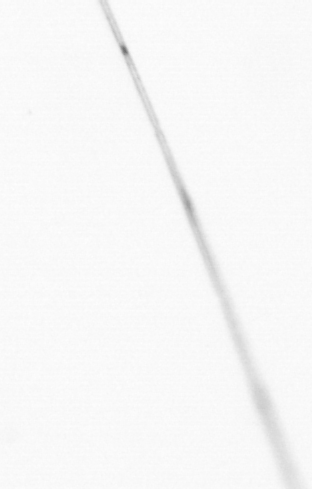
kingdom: Chromista
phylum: Ochrophyta
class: Bacillariophyceae
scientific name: Bacillariophyceae
